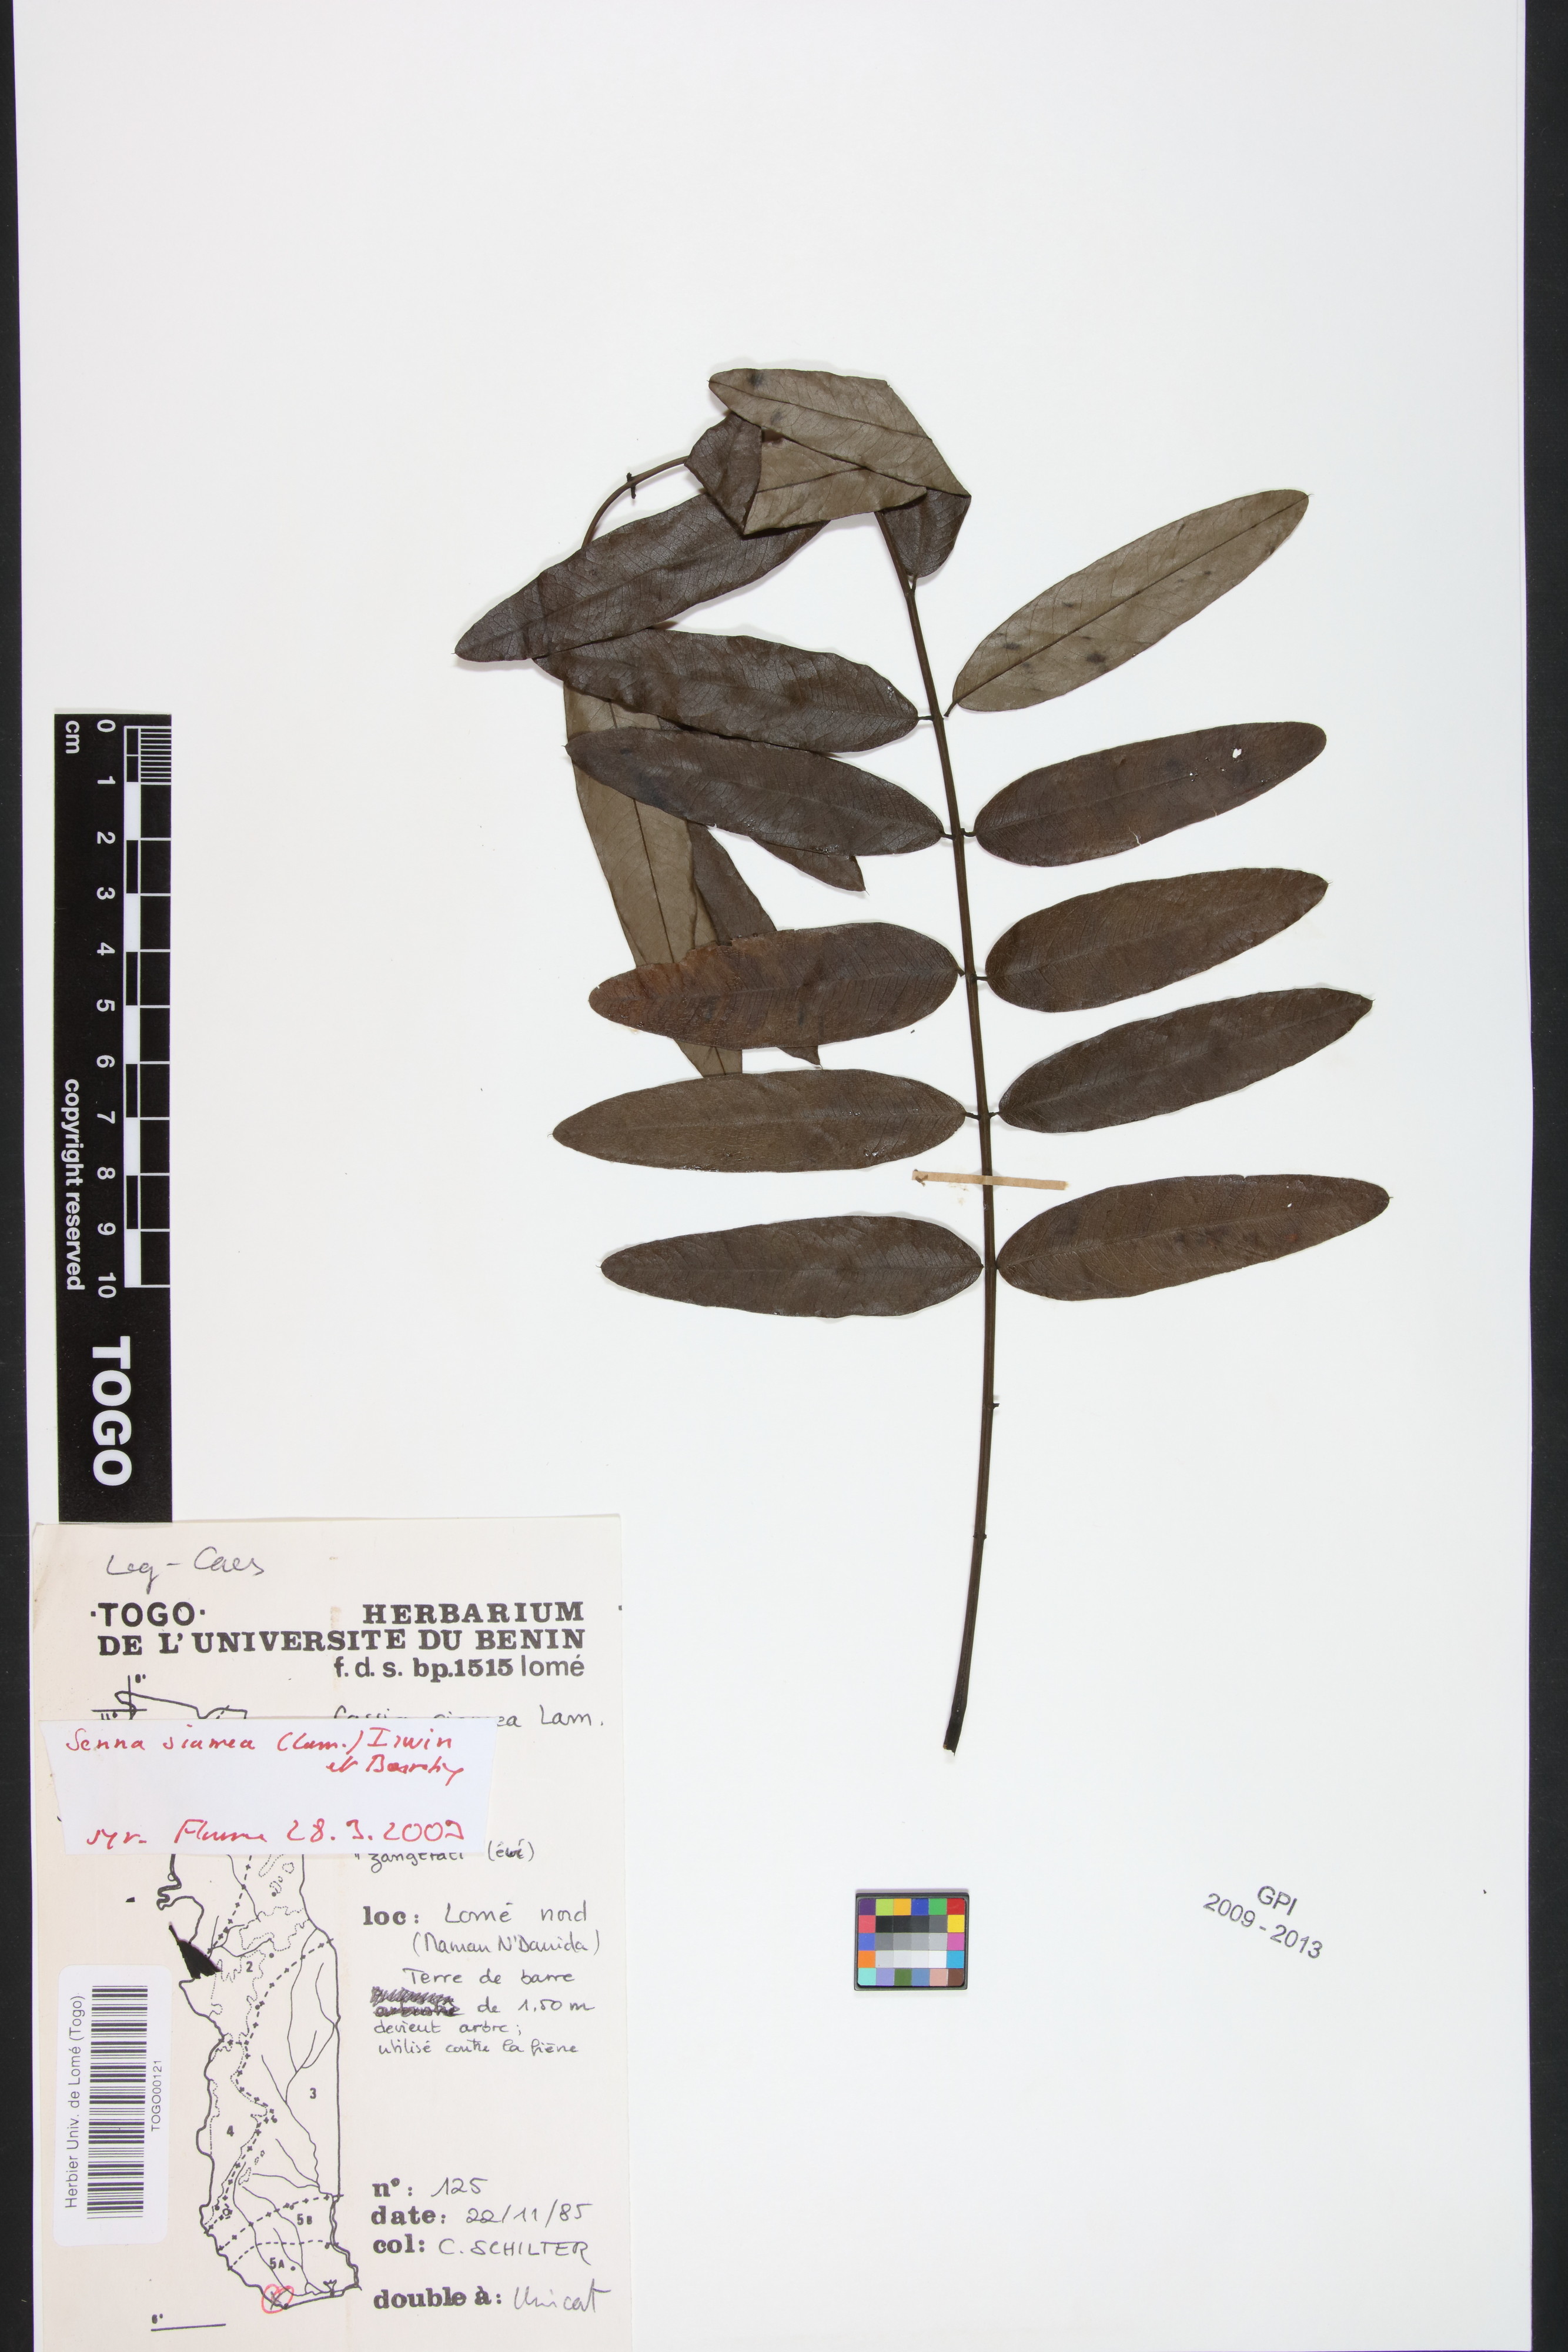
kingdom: Plantae
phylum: Tracheophyta
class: Magnoliopsida
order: Fabales
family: Fabaceae
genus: Senna
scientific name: Senna siamea
